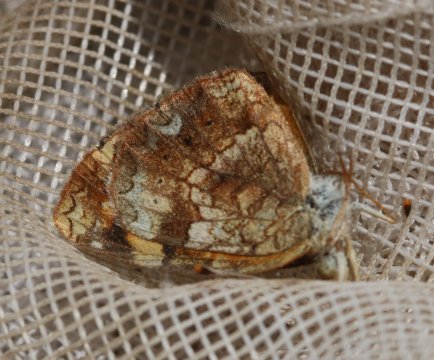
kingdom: Animalia
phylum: Arthropoda
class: Insecta
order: Lepidoptera
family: Nymphalidae
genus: Phyciodes
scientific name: Phyciodes tharos
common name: Northern Crescent
